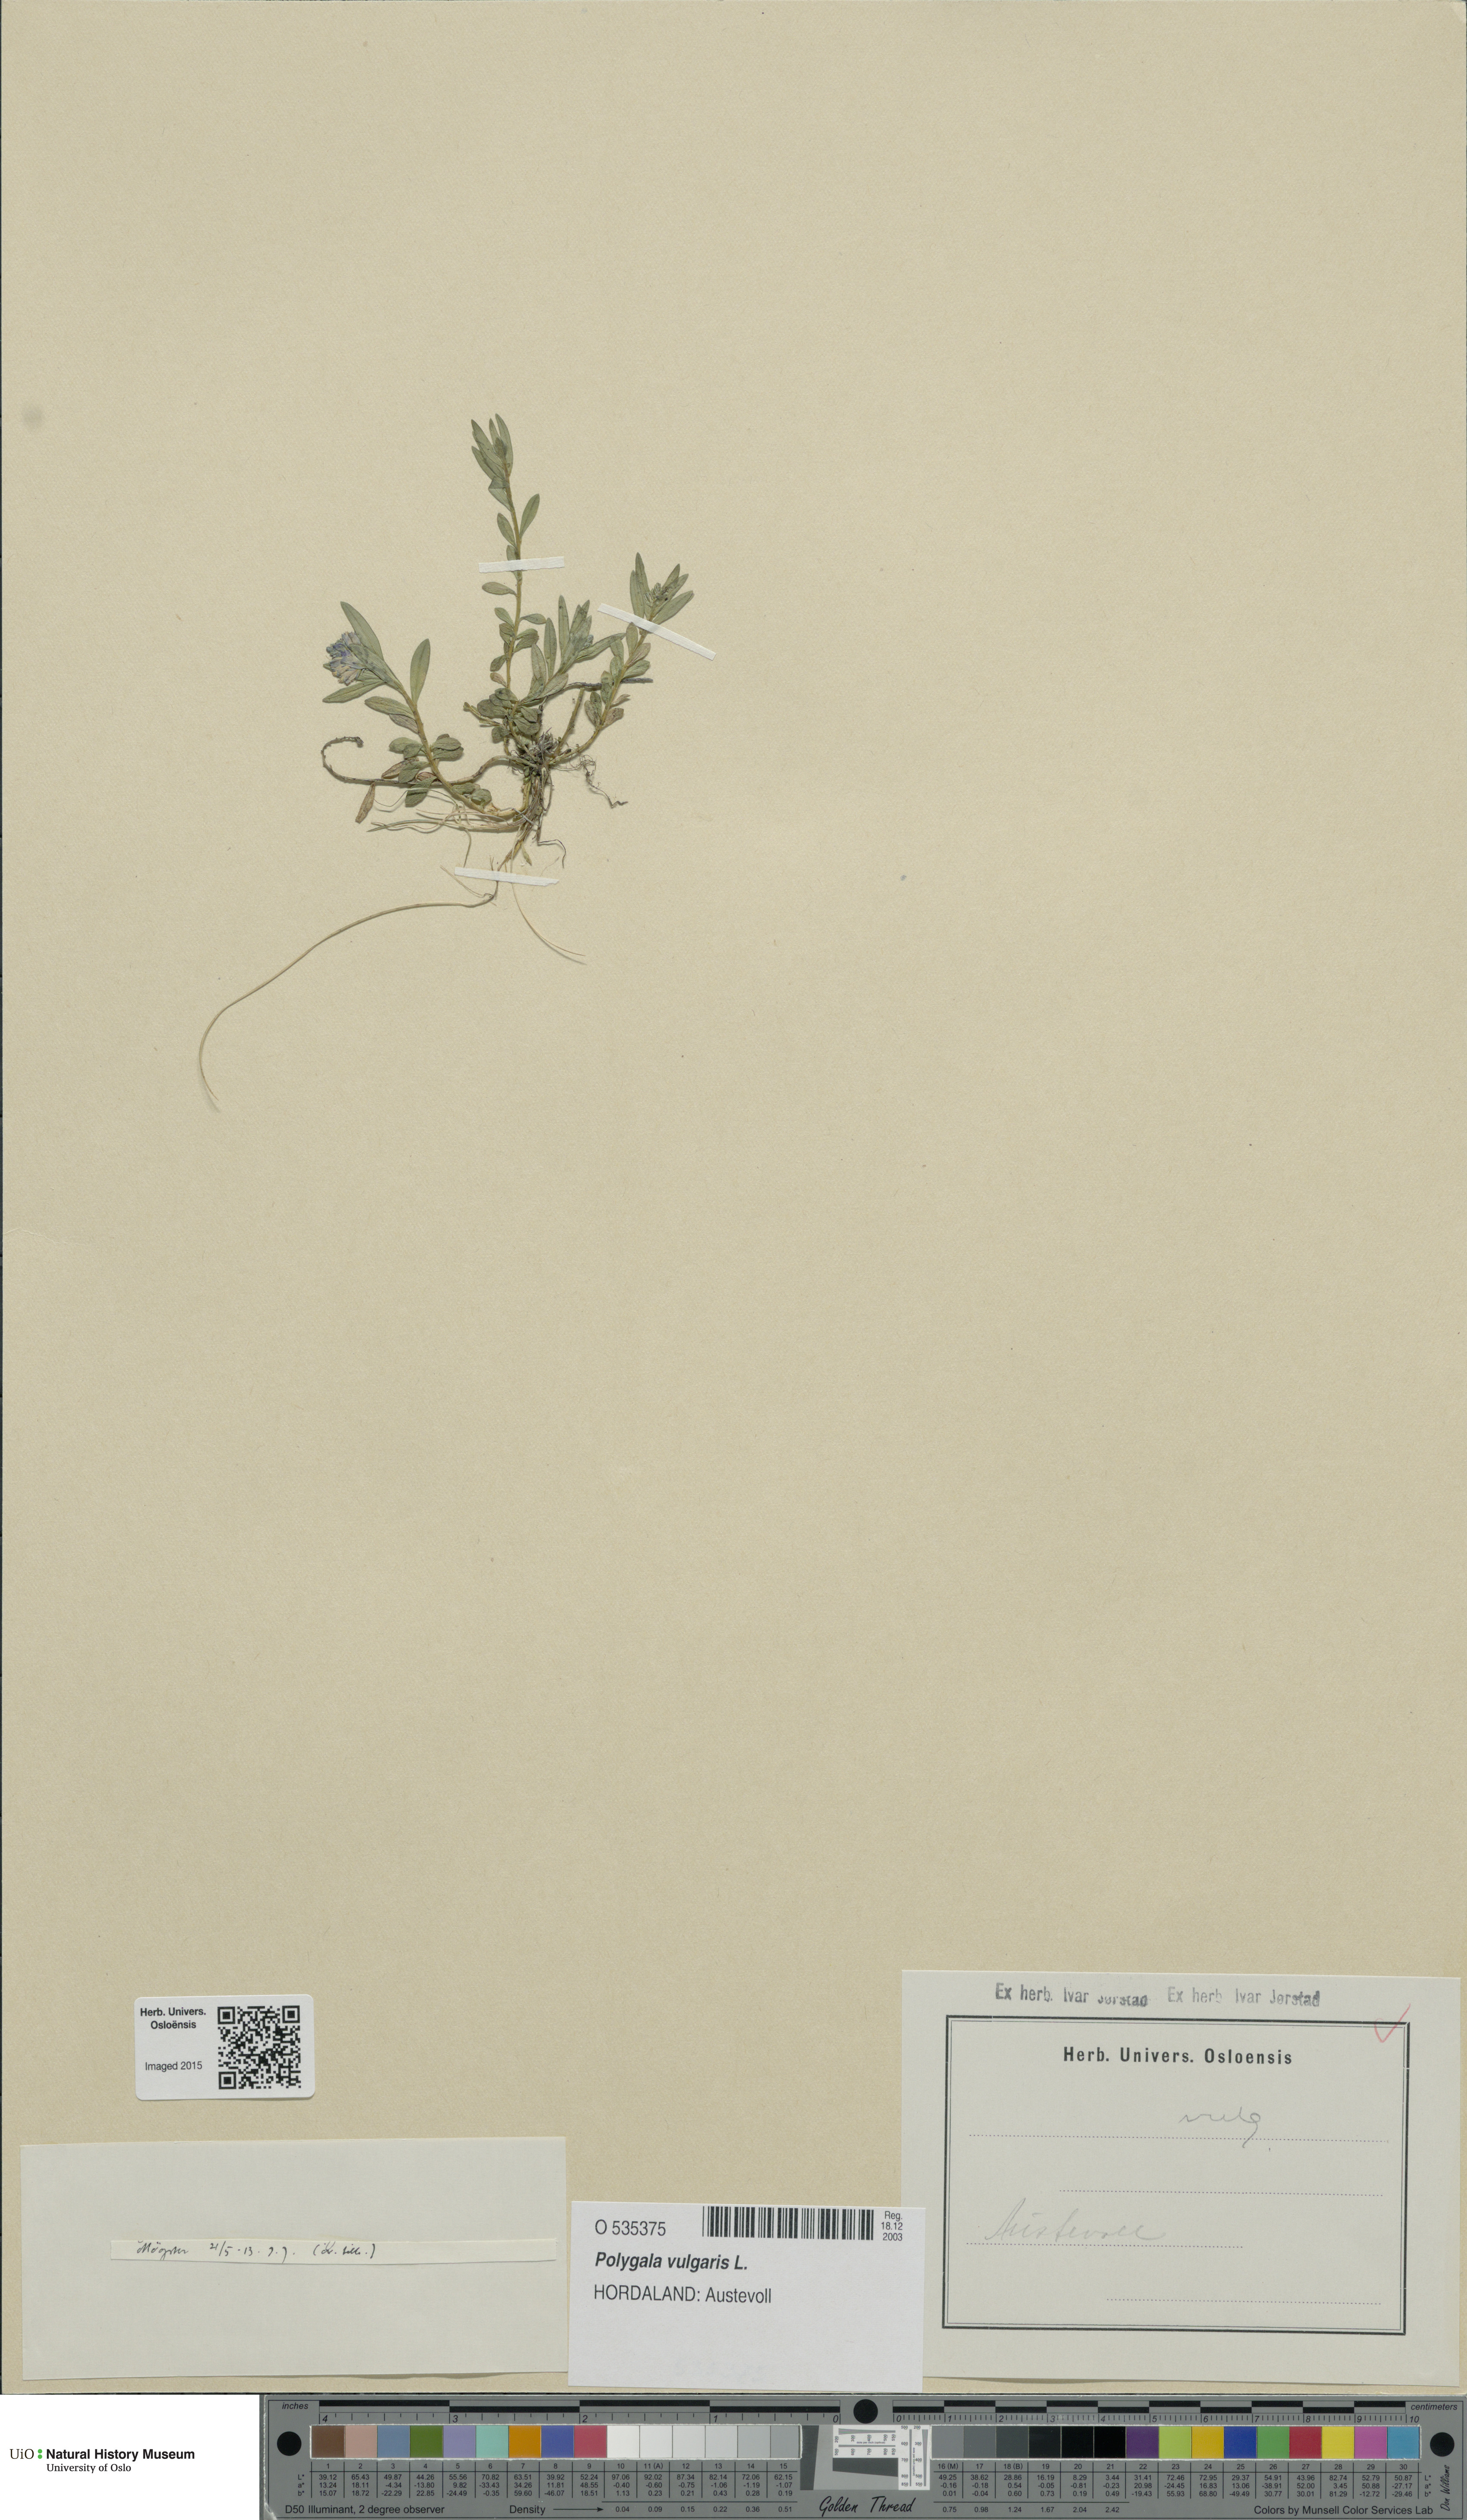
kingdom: Plantae
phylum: Tracheophyta
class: Magnoliopsida
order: Fabales
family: Polygalaceae
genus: Polygala
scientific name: Polygala vulgaris
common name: Common milkwort
